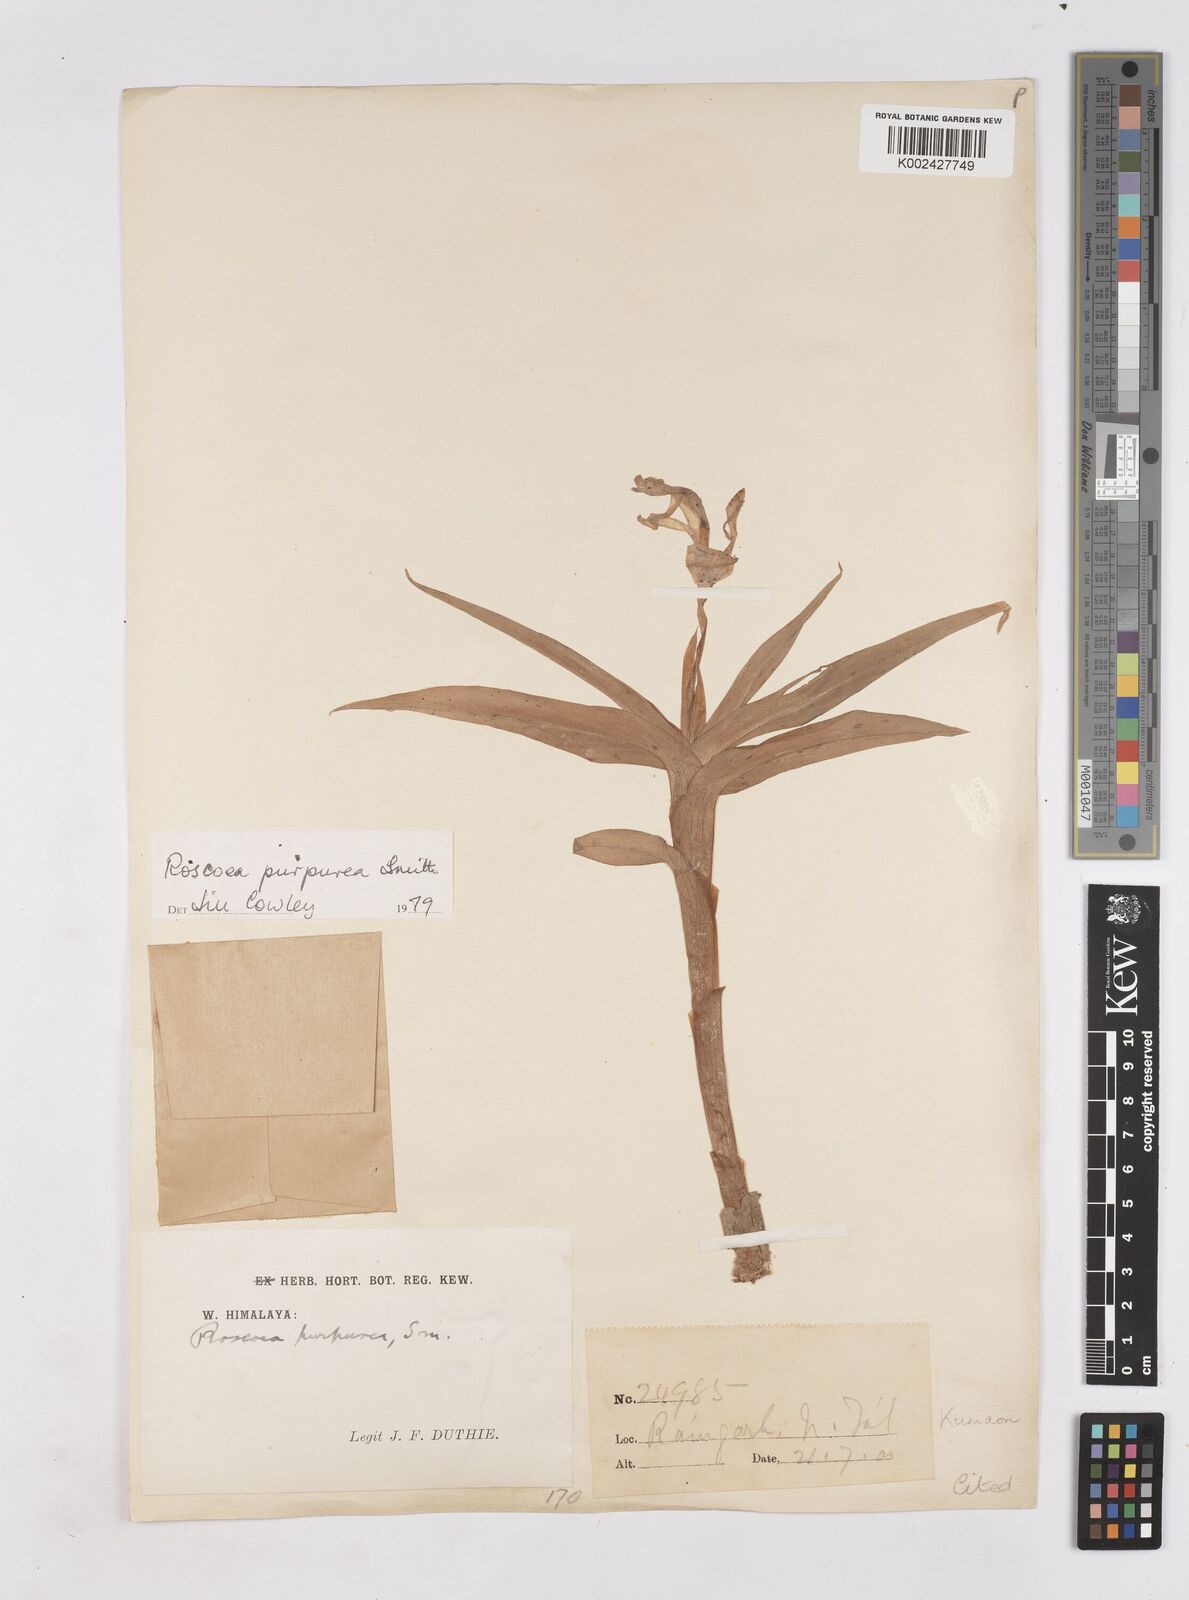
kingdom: Plantae
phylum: Tracheophyta
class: Liliopsida
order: Zingiberales
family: Zingiberaceae
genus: Roscoea
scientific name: Roscoea purpurea
